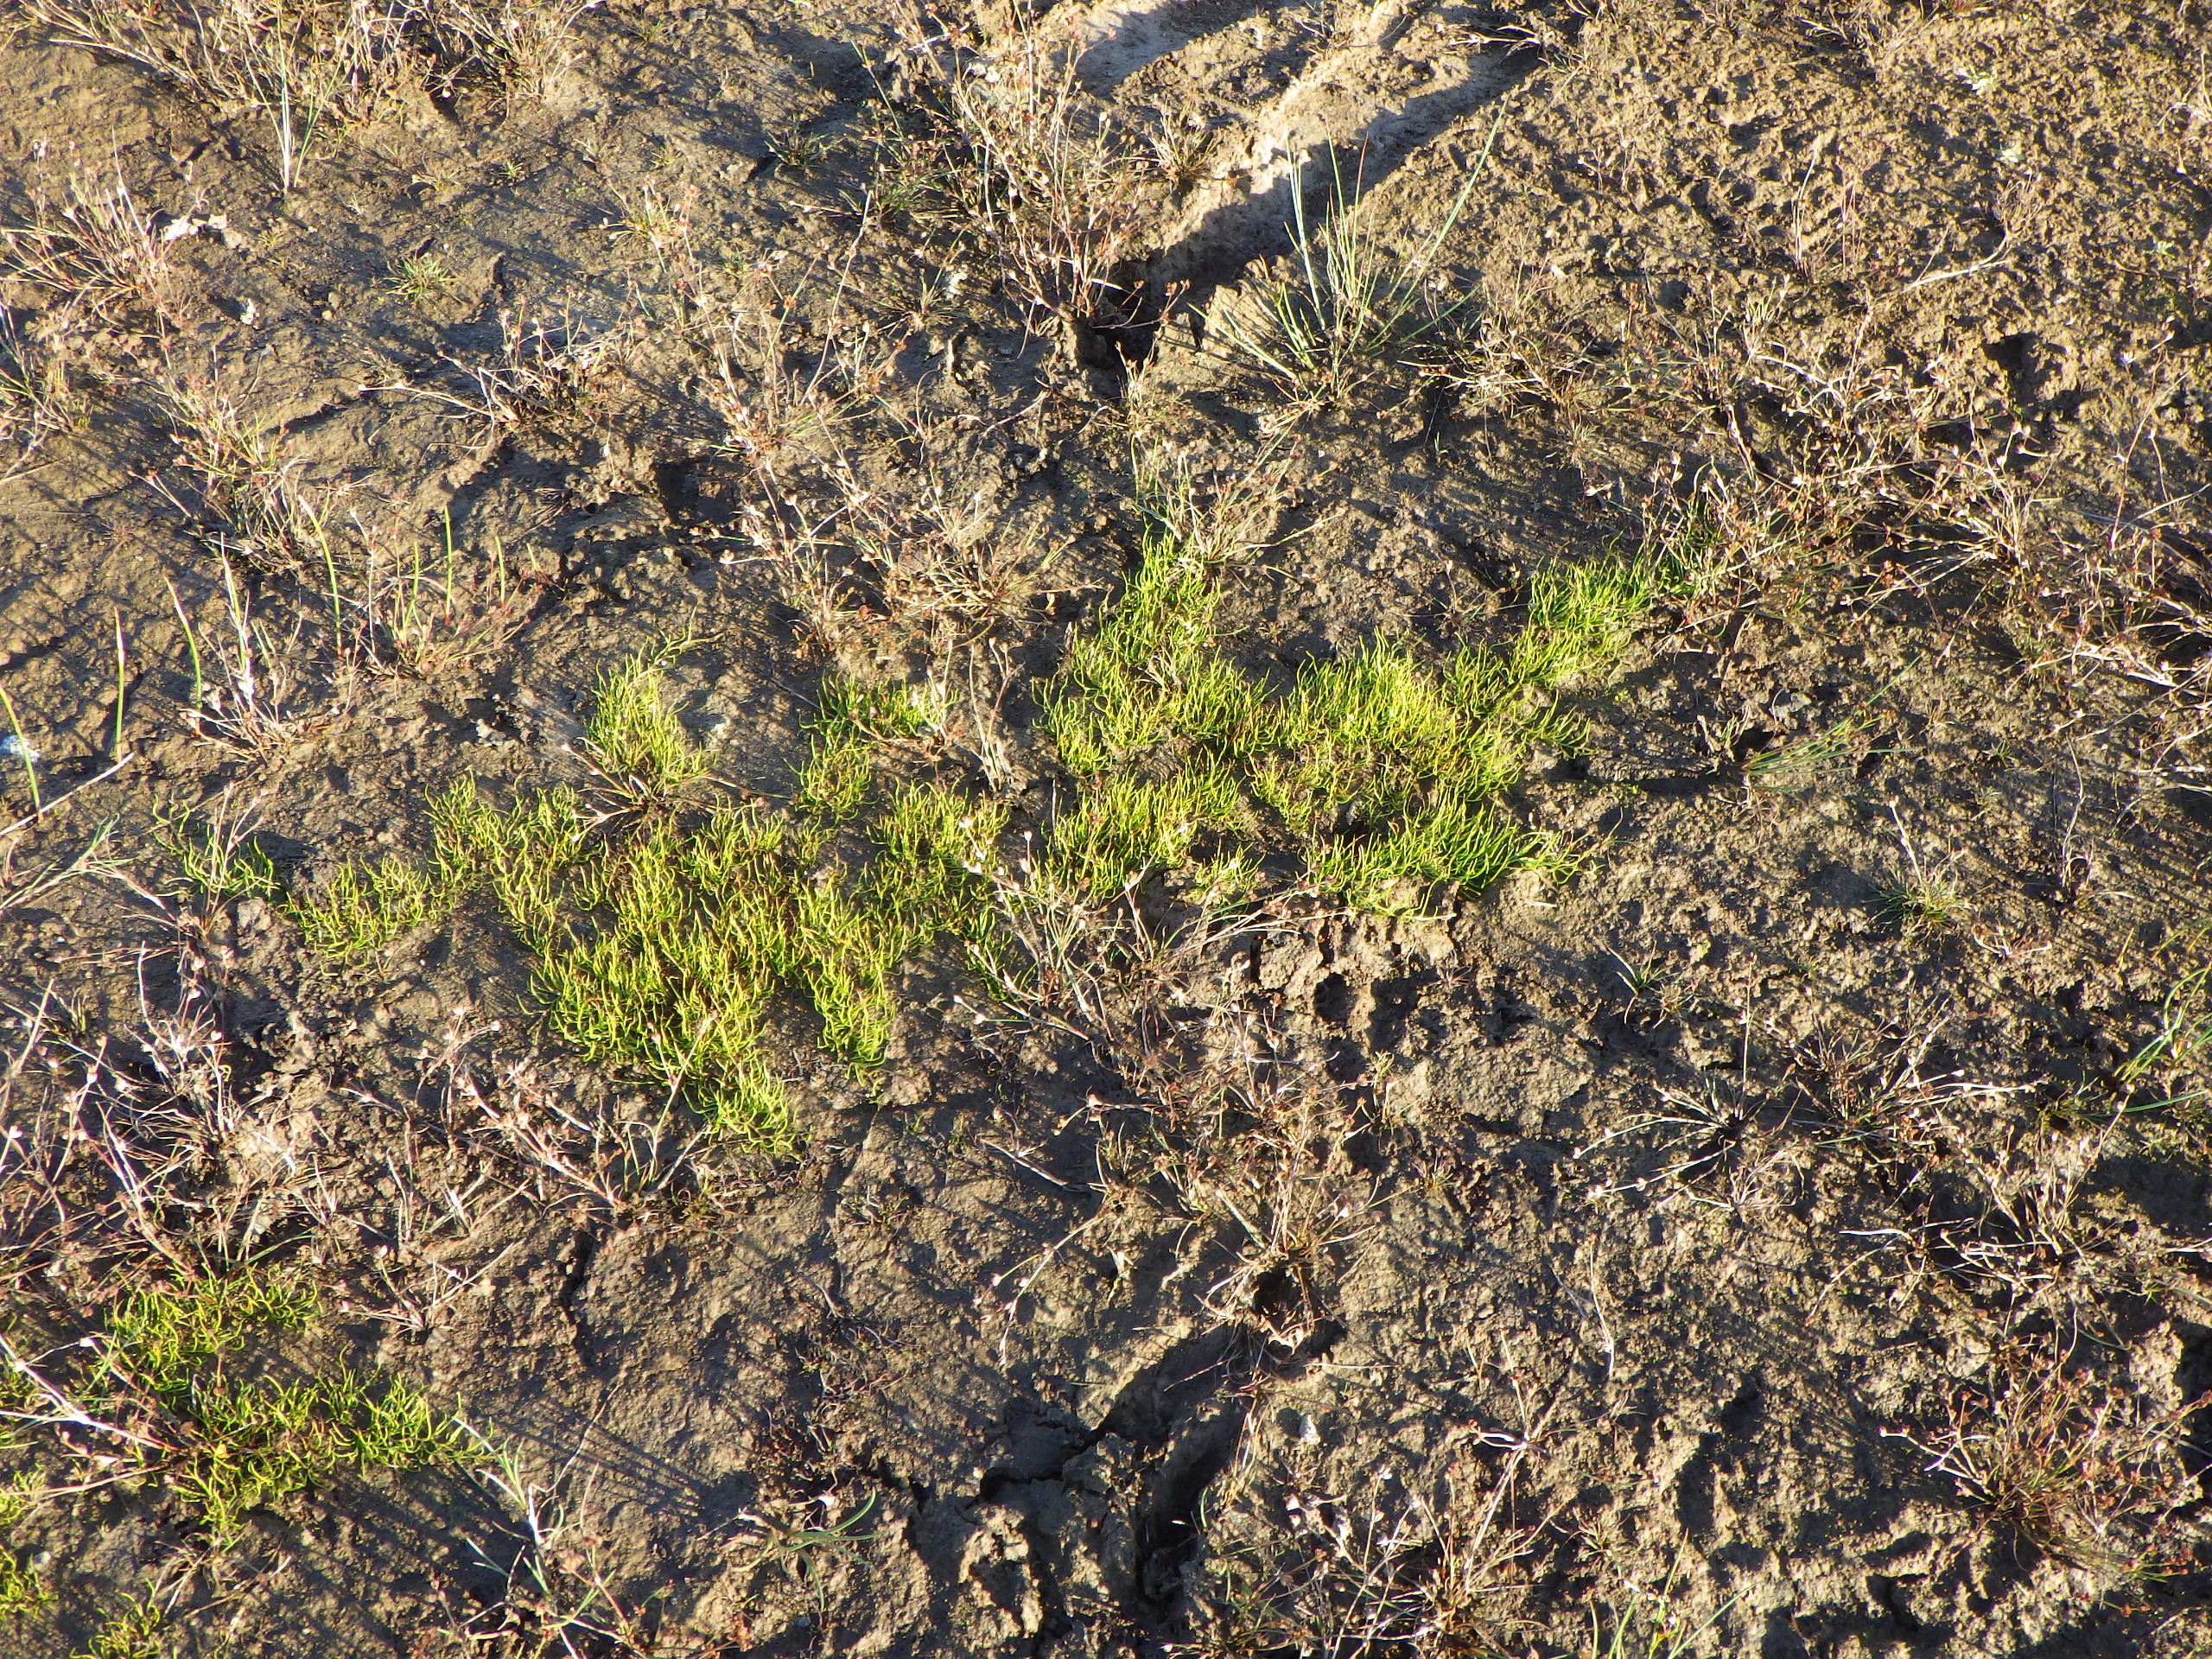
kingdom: Plantae
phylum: Tracheophyta
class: Polypodiopsida
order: Salviniales
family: Marsileaceae
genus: Pilularia
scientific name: Pilularia globulifera
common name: Pilledrager
